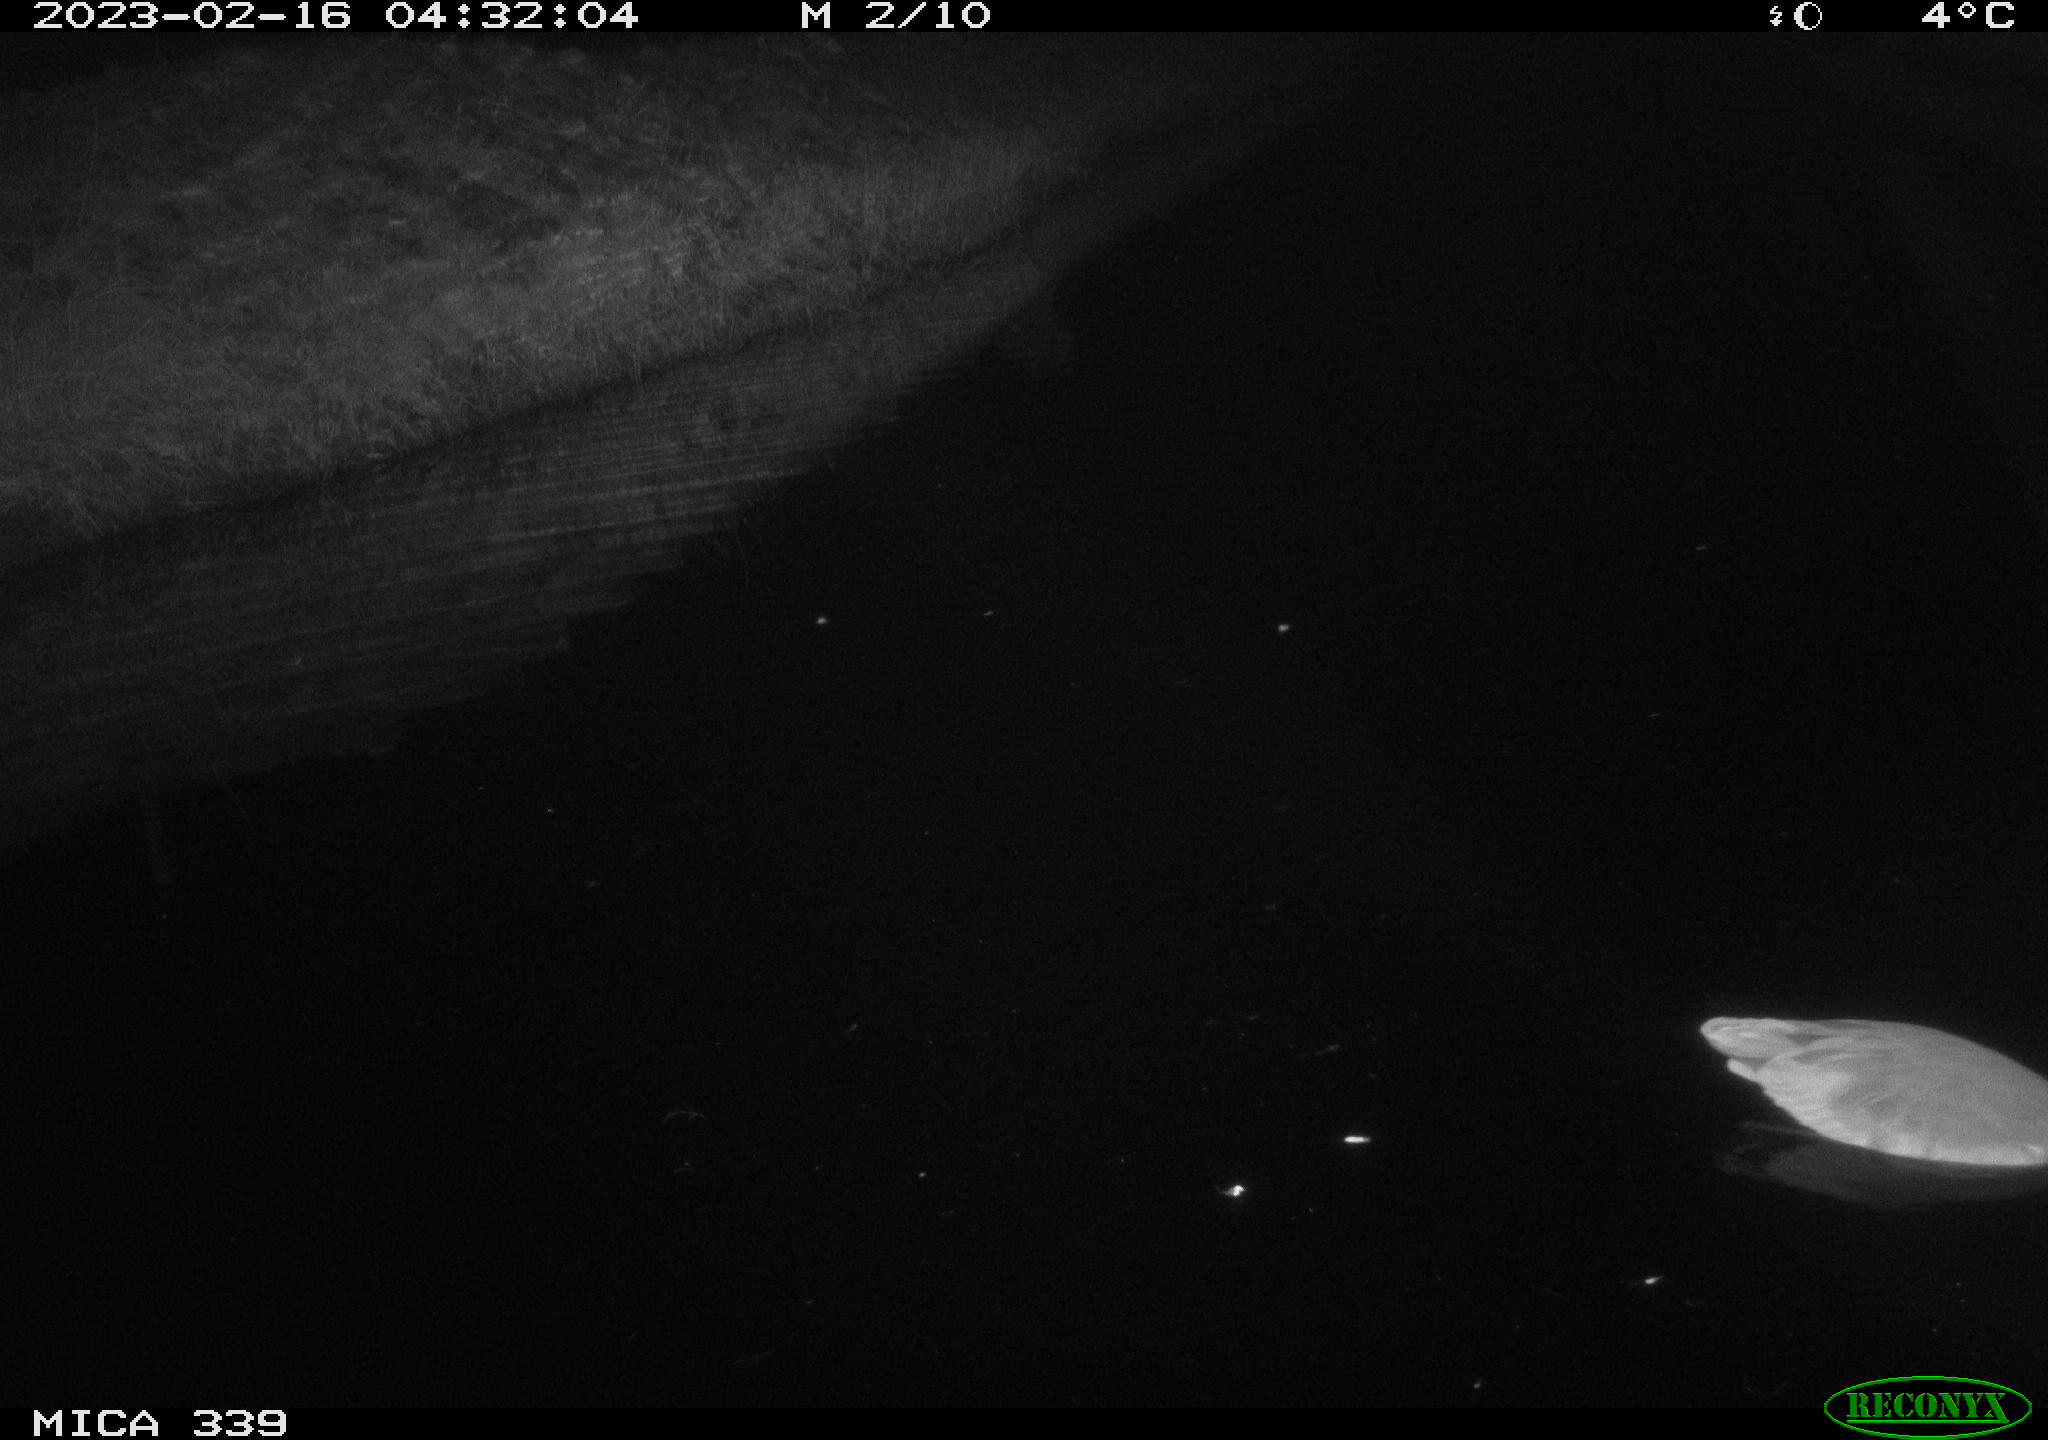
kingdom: Animalia
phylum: Chordata
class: Aves
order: Pelecaniformes
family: Ardeidae
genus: Ardea
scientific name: Ardea cinerea
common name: Grey heron
